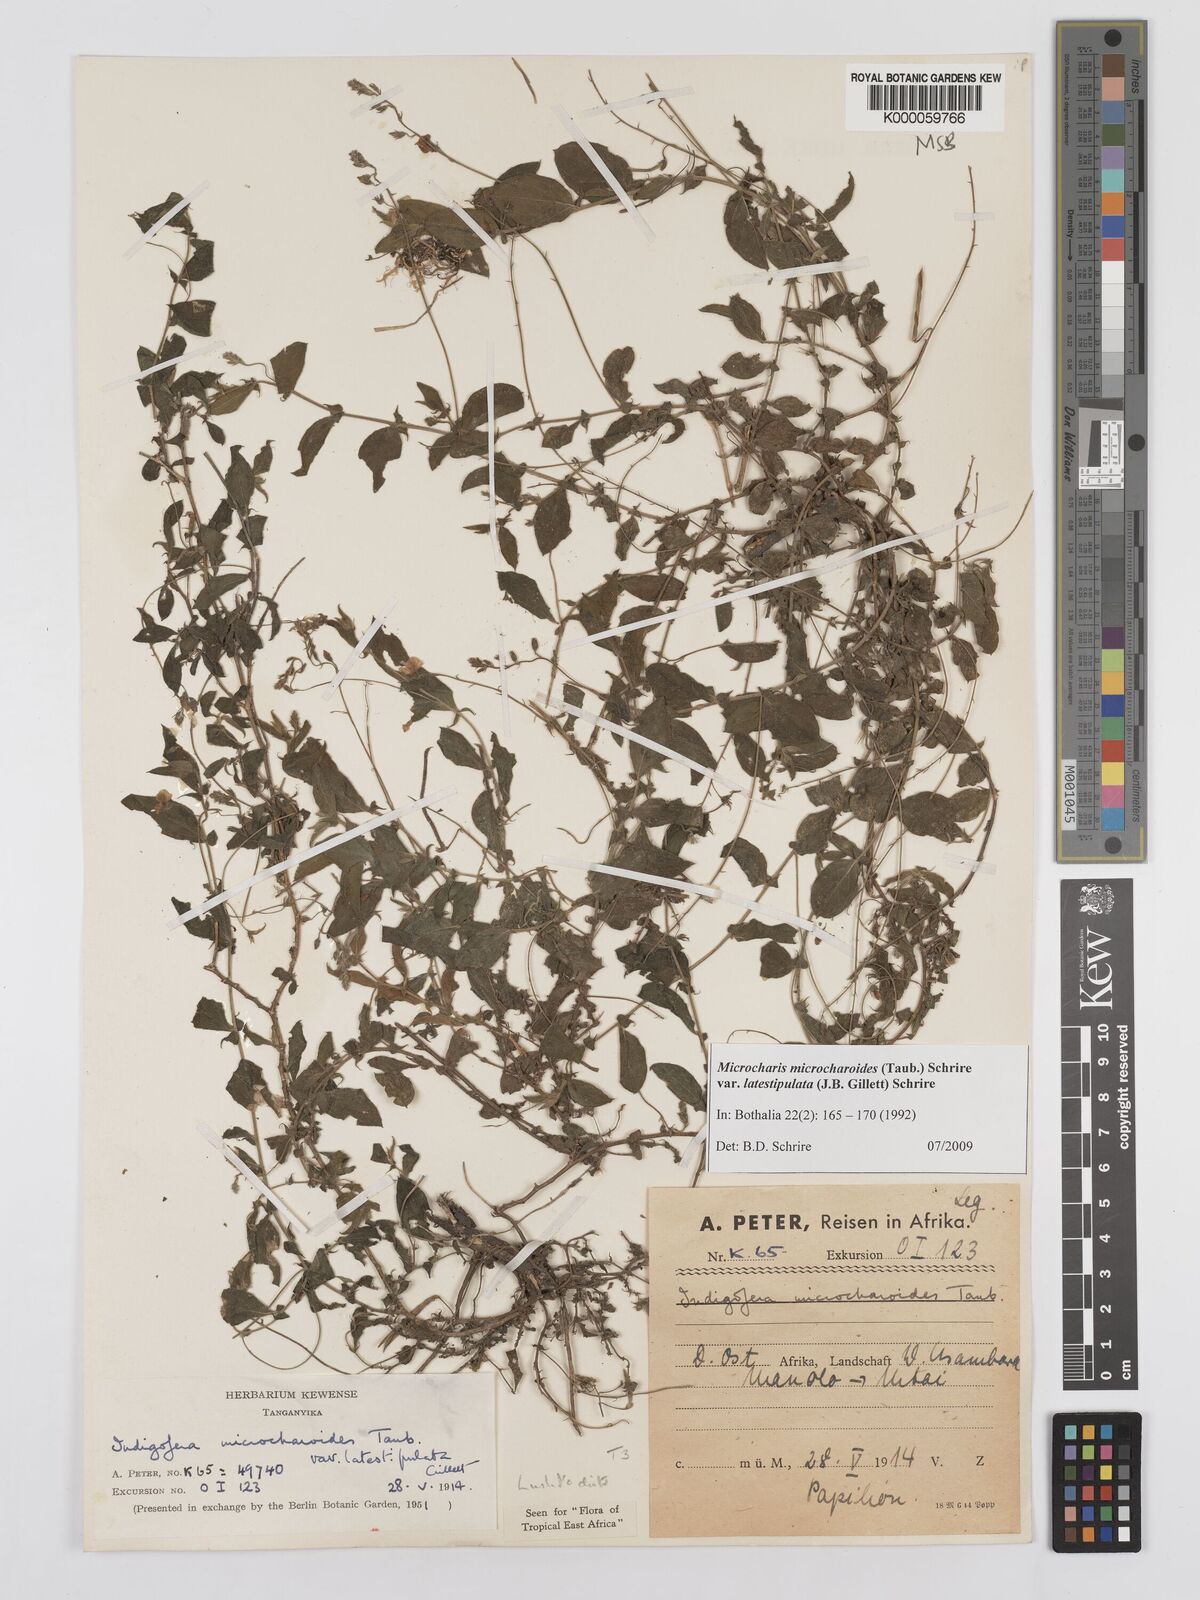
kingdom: Plantae
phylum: Tracheophyta
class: Magnoliopsida
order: Fabales
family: Fabaceae
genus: Indigofera
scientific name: Indigofera
